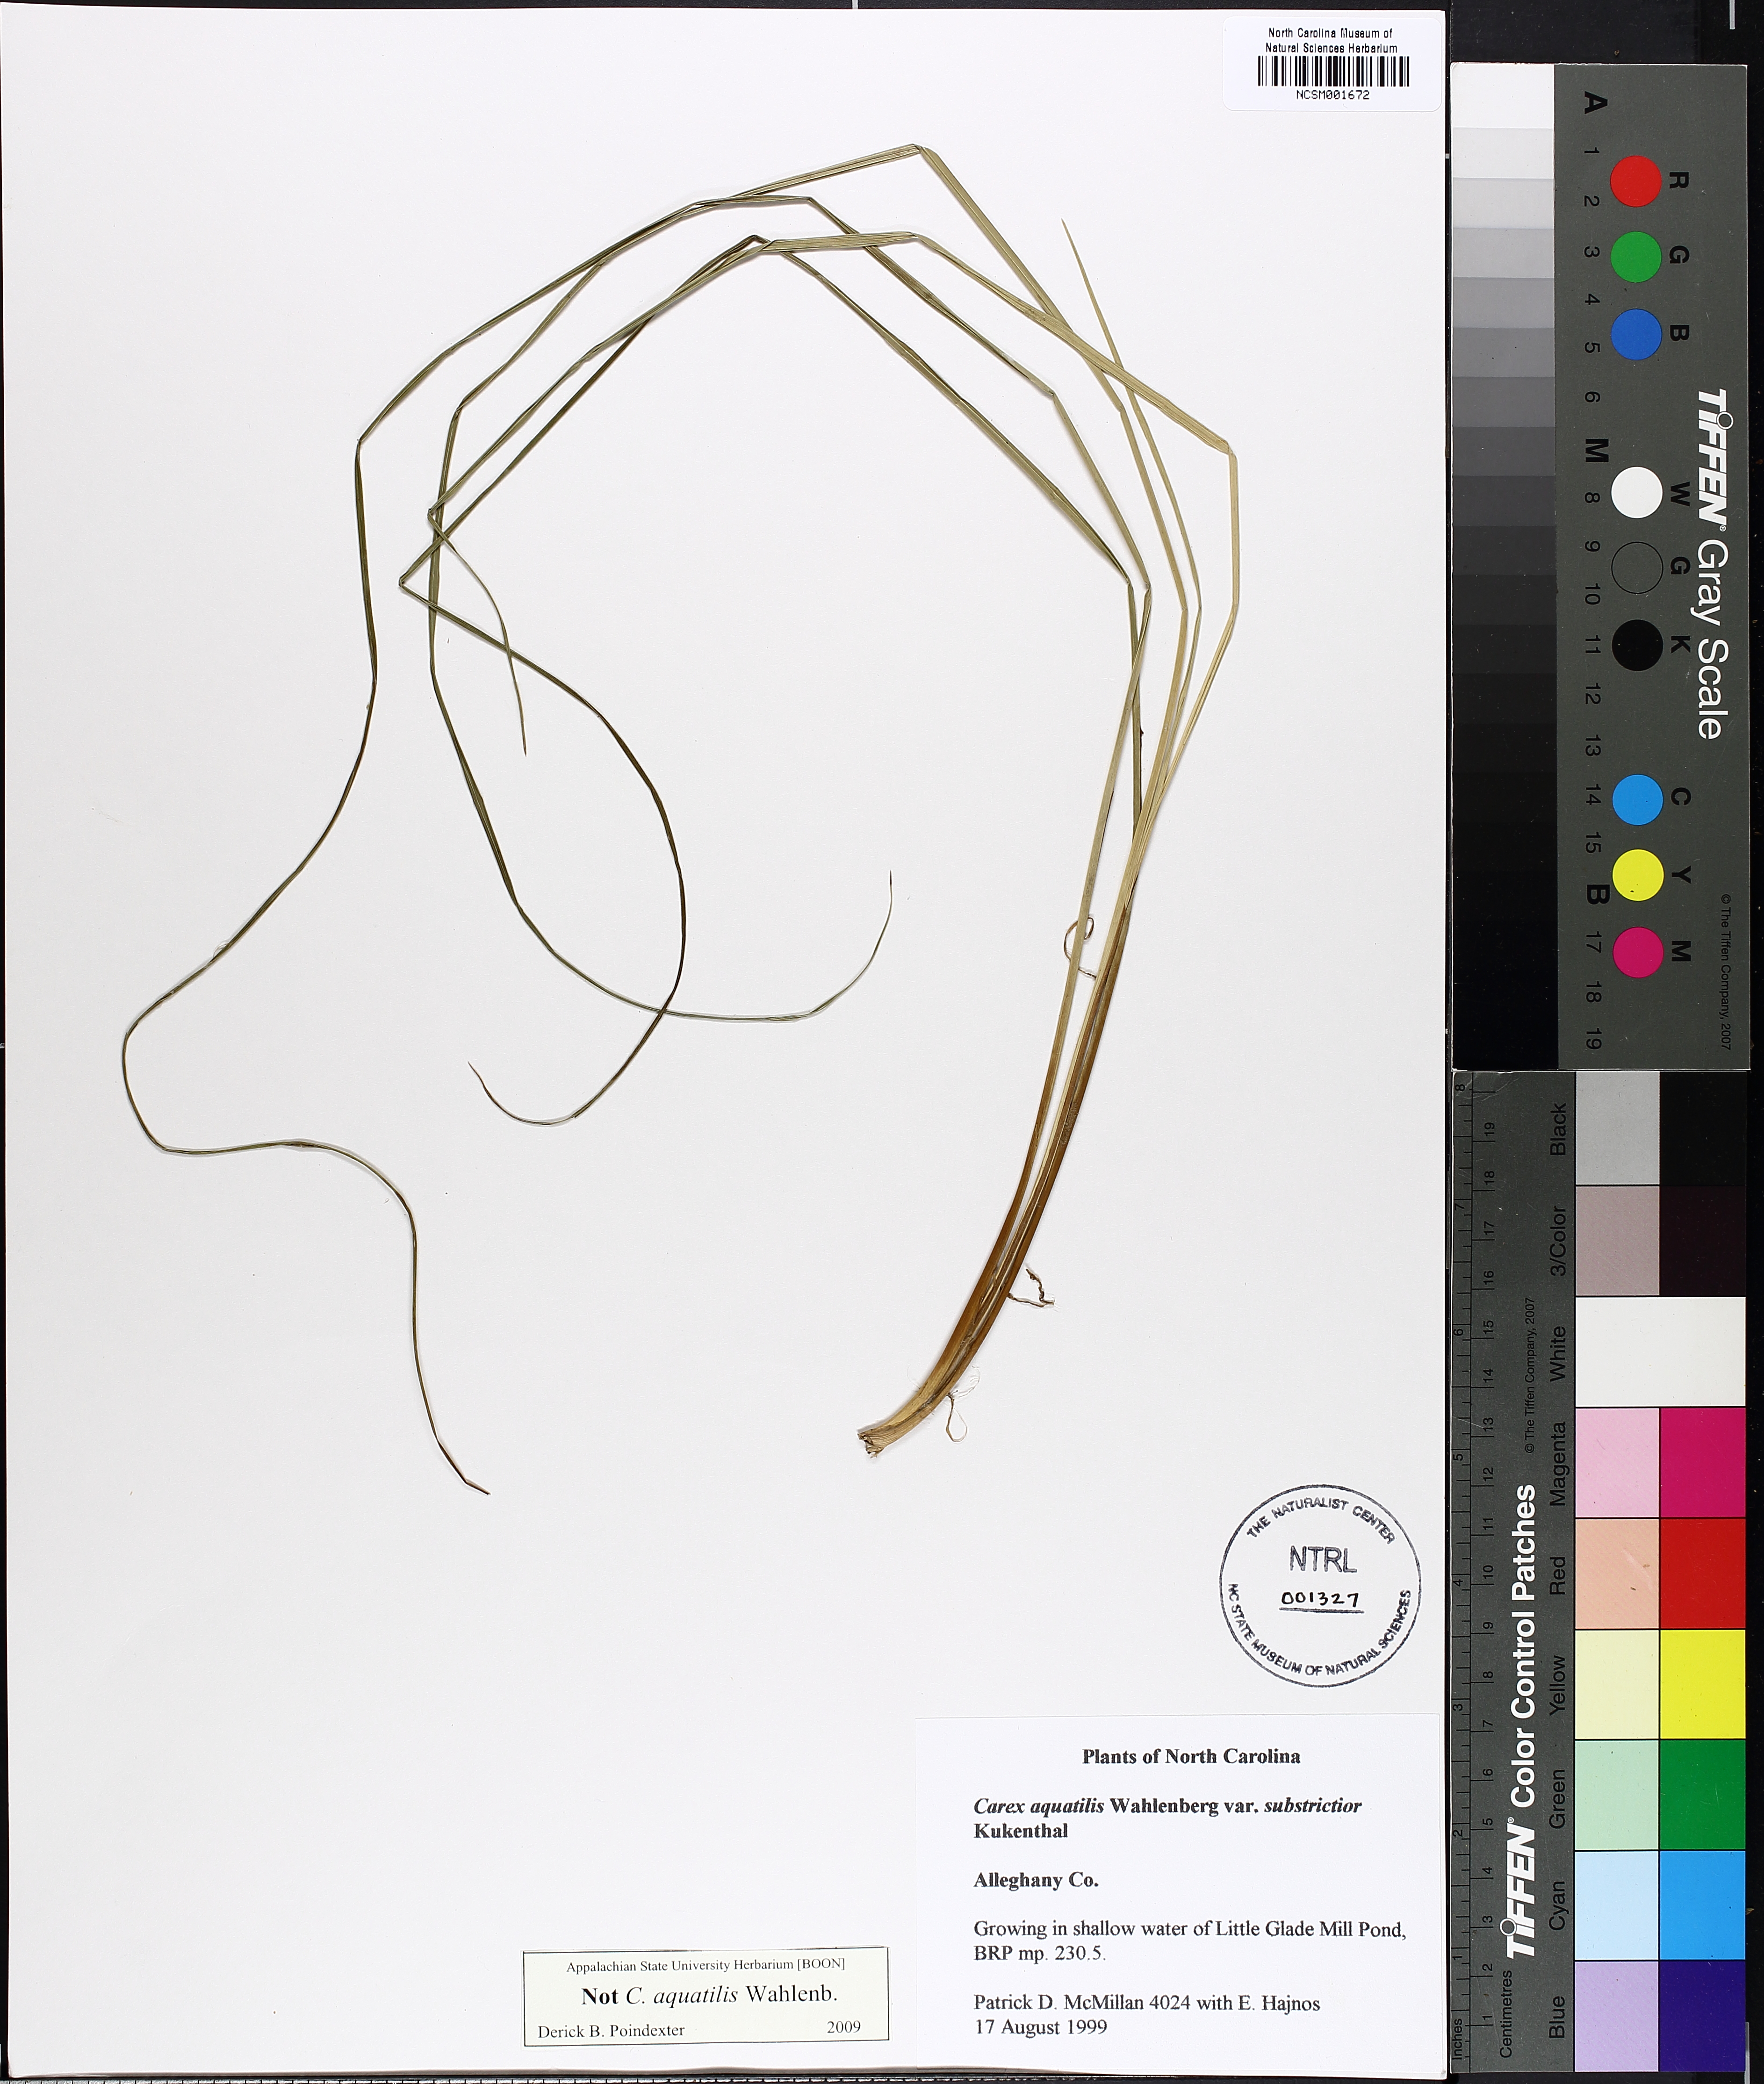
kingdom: Plantae
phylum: Tracheophyta
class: Liliopsida
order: Poales
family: Cyperaceae
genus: Carex
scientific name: Carex
